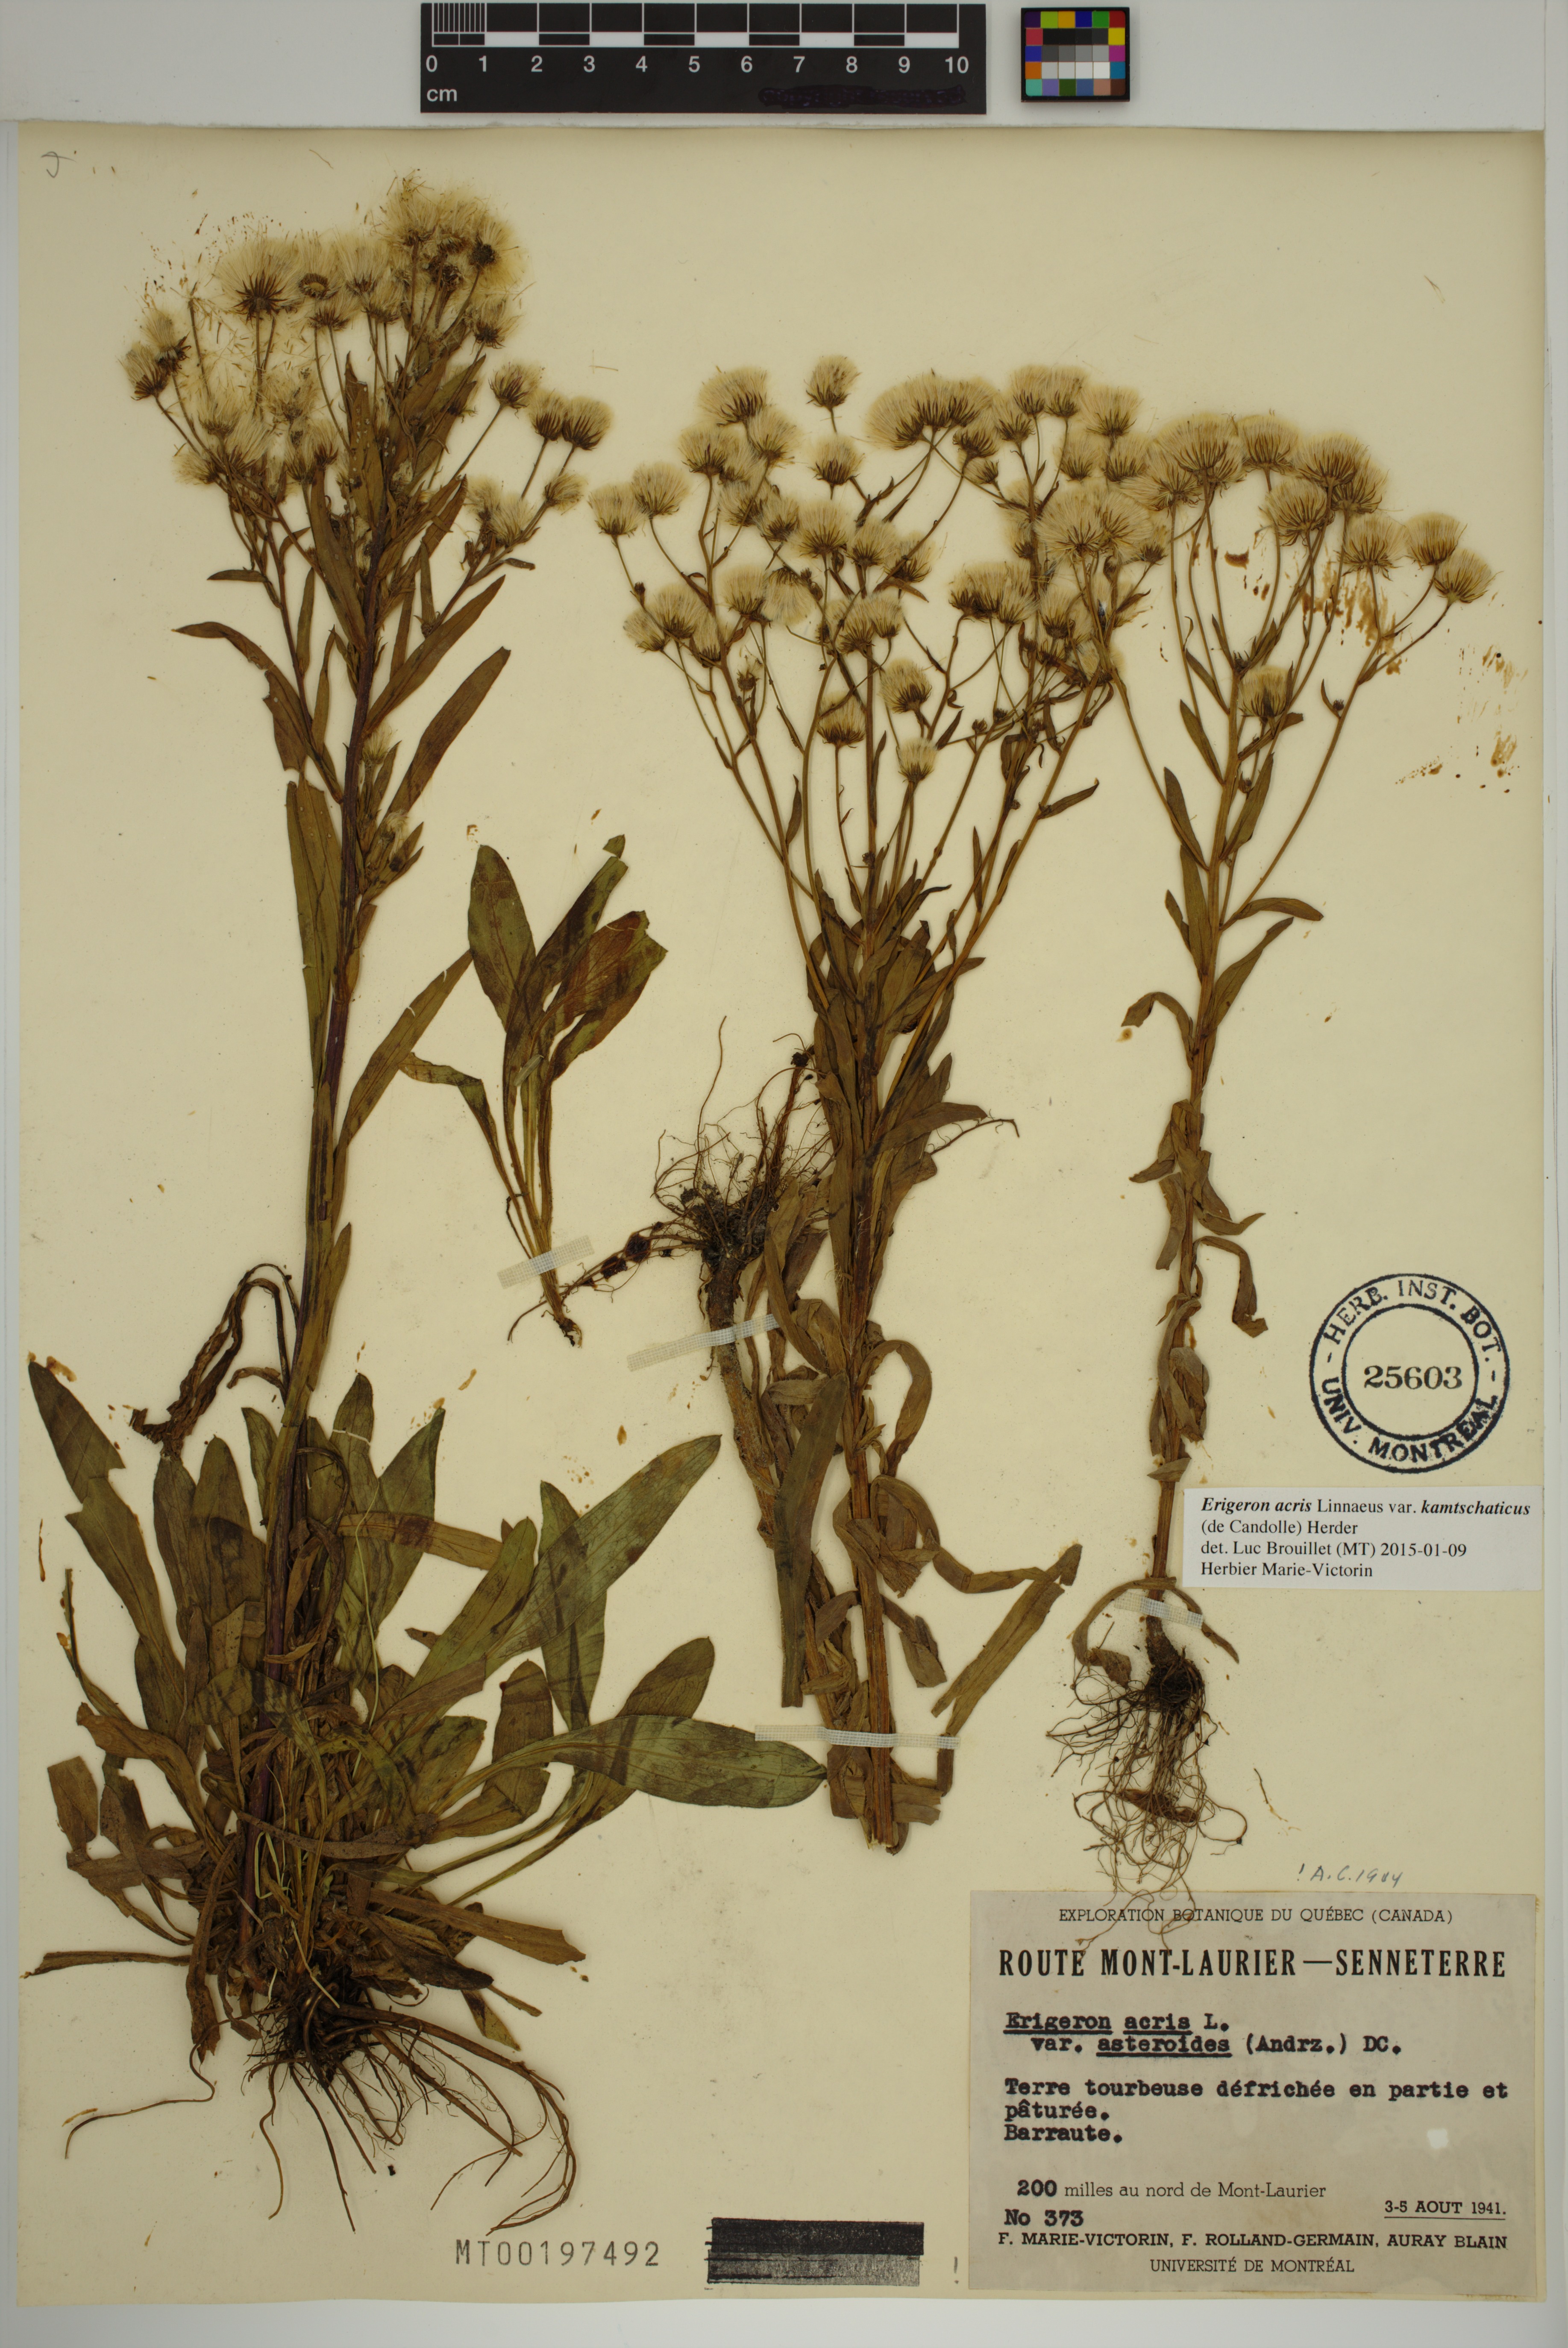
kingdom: Plantae
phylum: Tracheophyta
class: Magnoliopsida
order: Asterales
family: Asteraceae
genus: Erigeron
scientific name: Erigeron kamtschaticus
